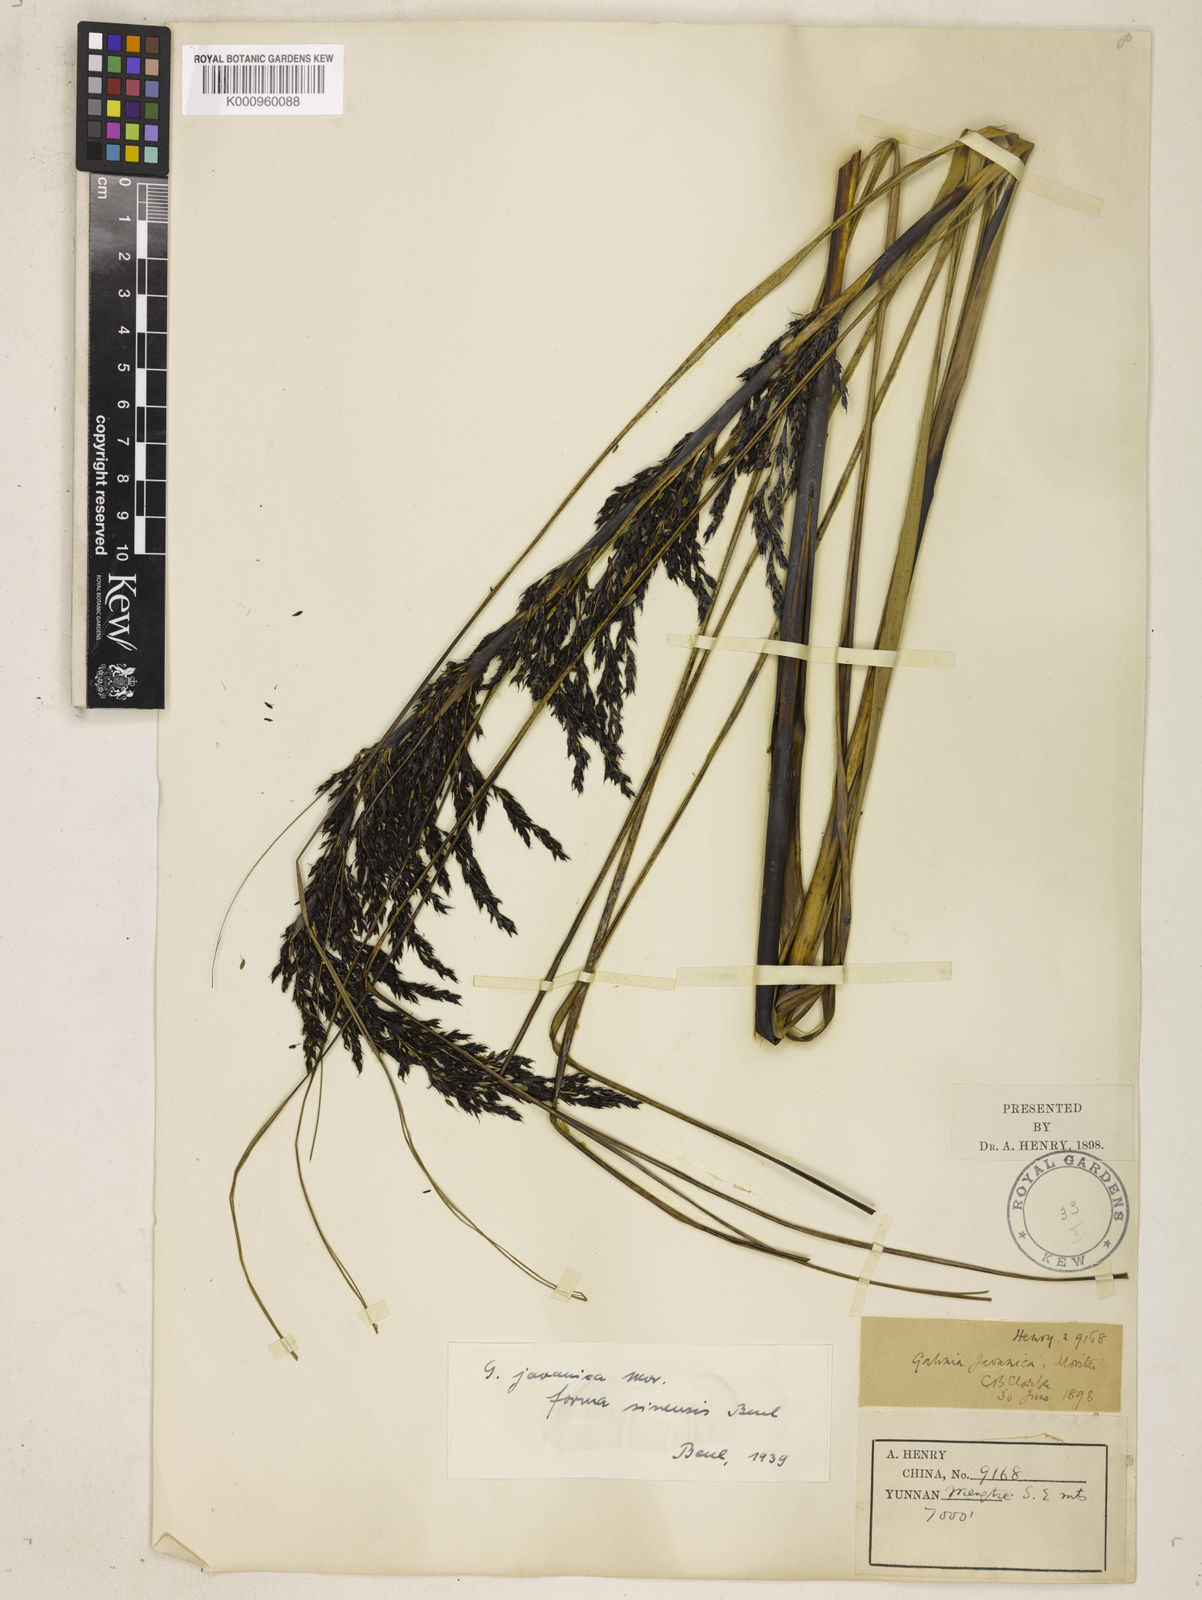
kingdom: Plantae
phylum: Tracheophyta
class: Liliopsida
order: Poales
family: Cyperaceae
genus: Gahnia
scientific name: Gahnia javanica
